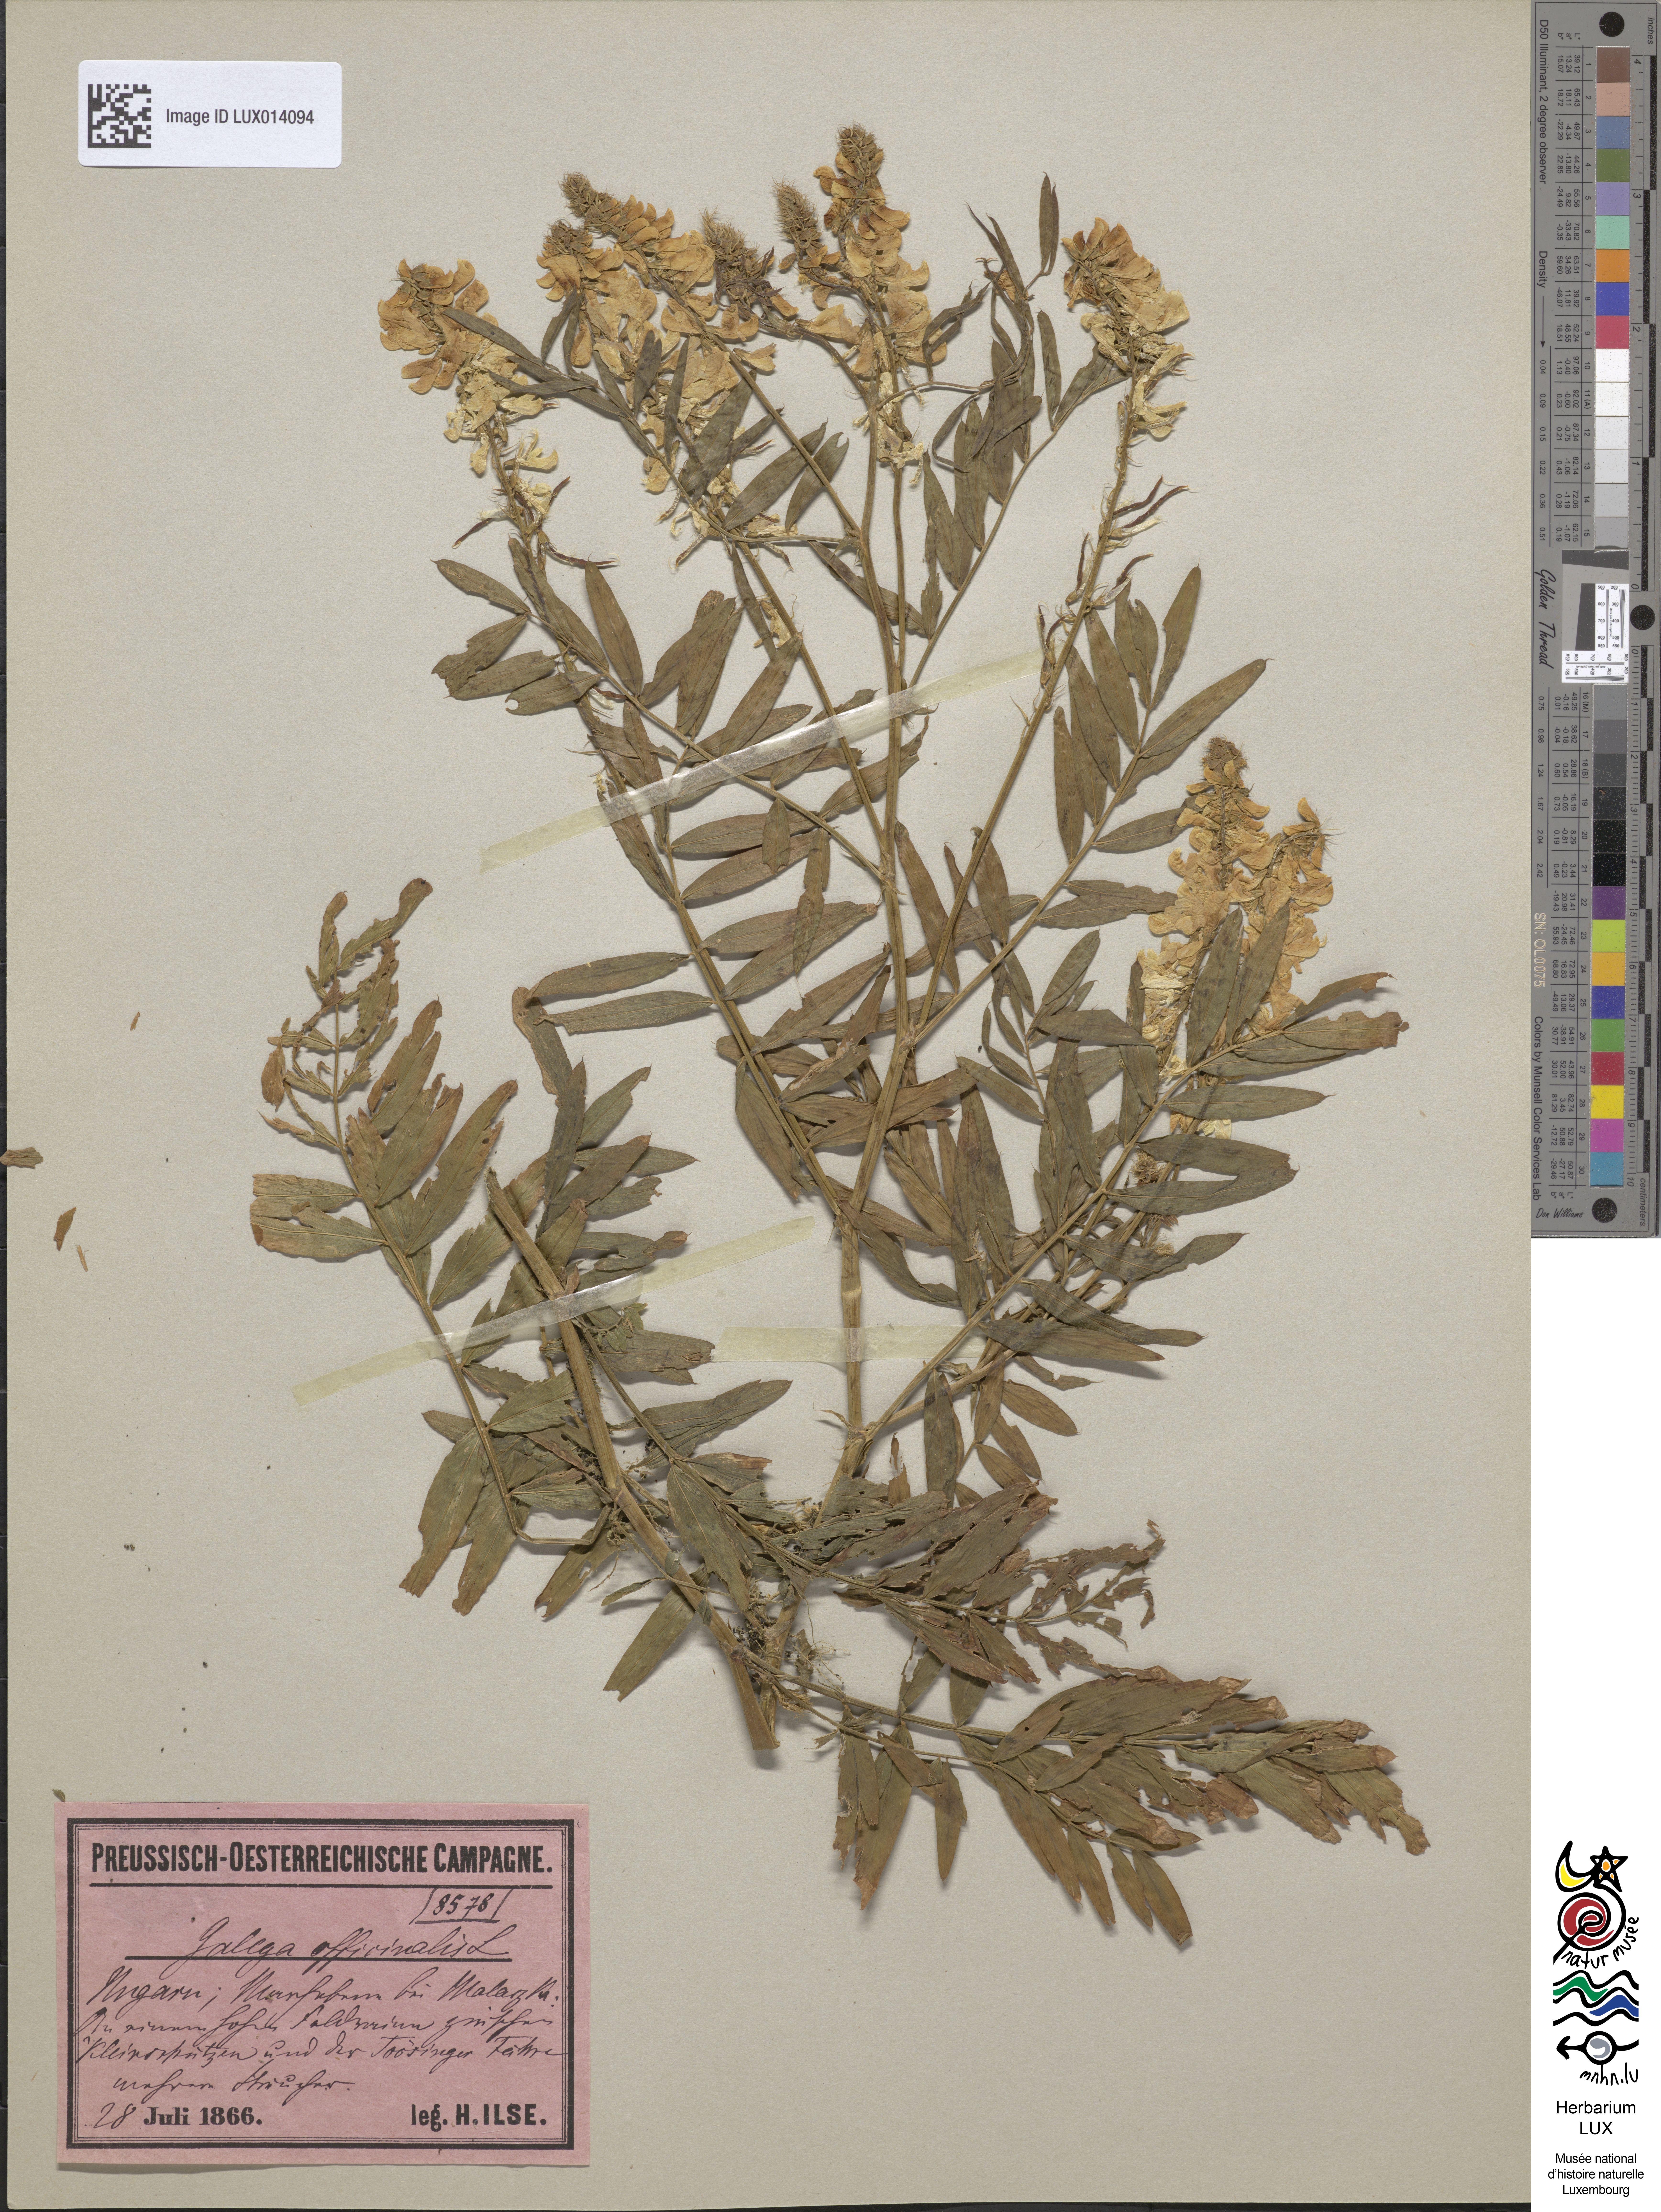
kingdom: Plantae
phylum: Tracheophyta
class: Magnoliopsida
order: Fabales
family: Fabaceae
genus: Galega
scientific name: Galega officinalis
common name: Goat's-rue
